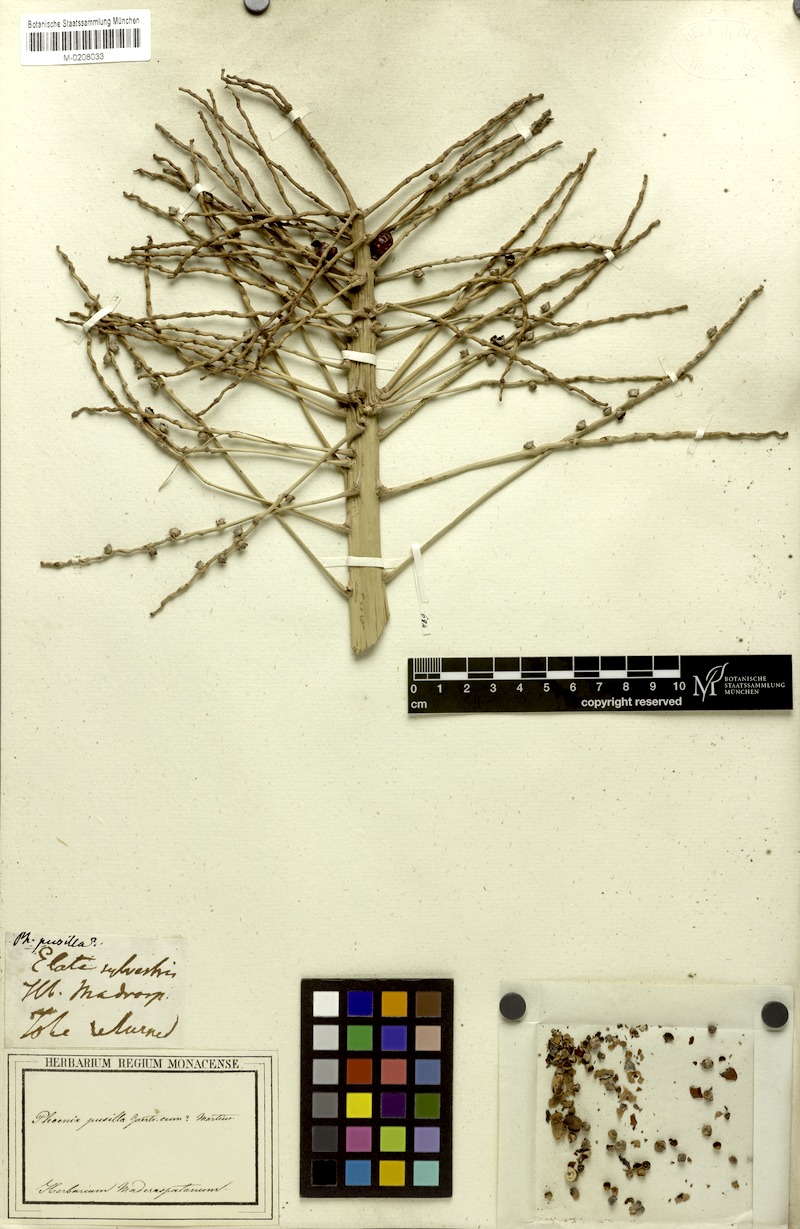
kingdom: Plantae
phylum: Tracheophyta
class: Liliopsida
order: Arecales
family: Arecaceae
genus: Phoenix
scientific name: Phoenix pusilla
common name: Flour palm
